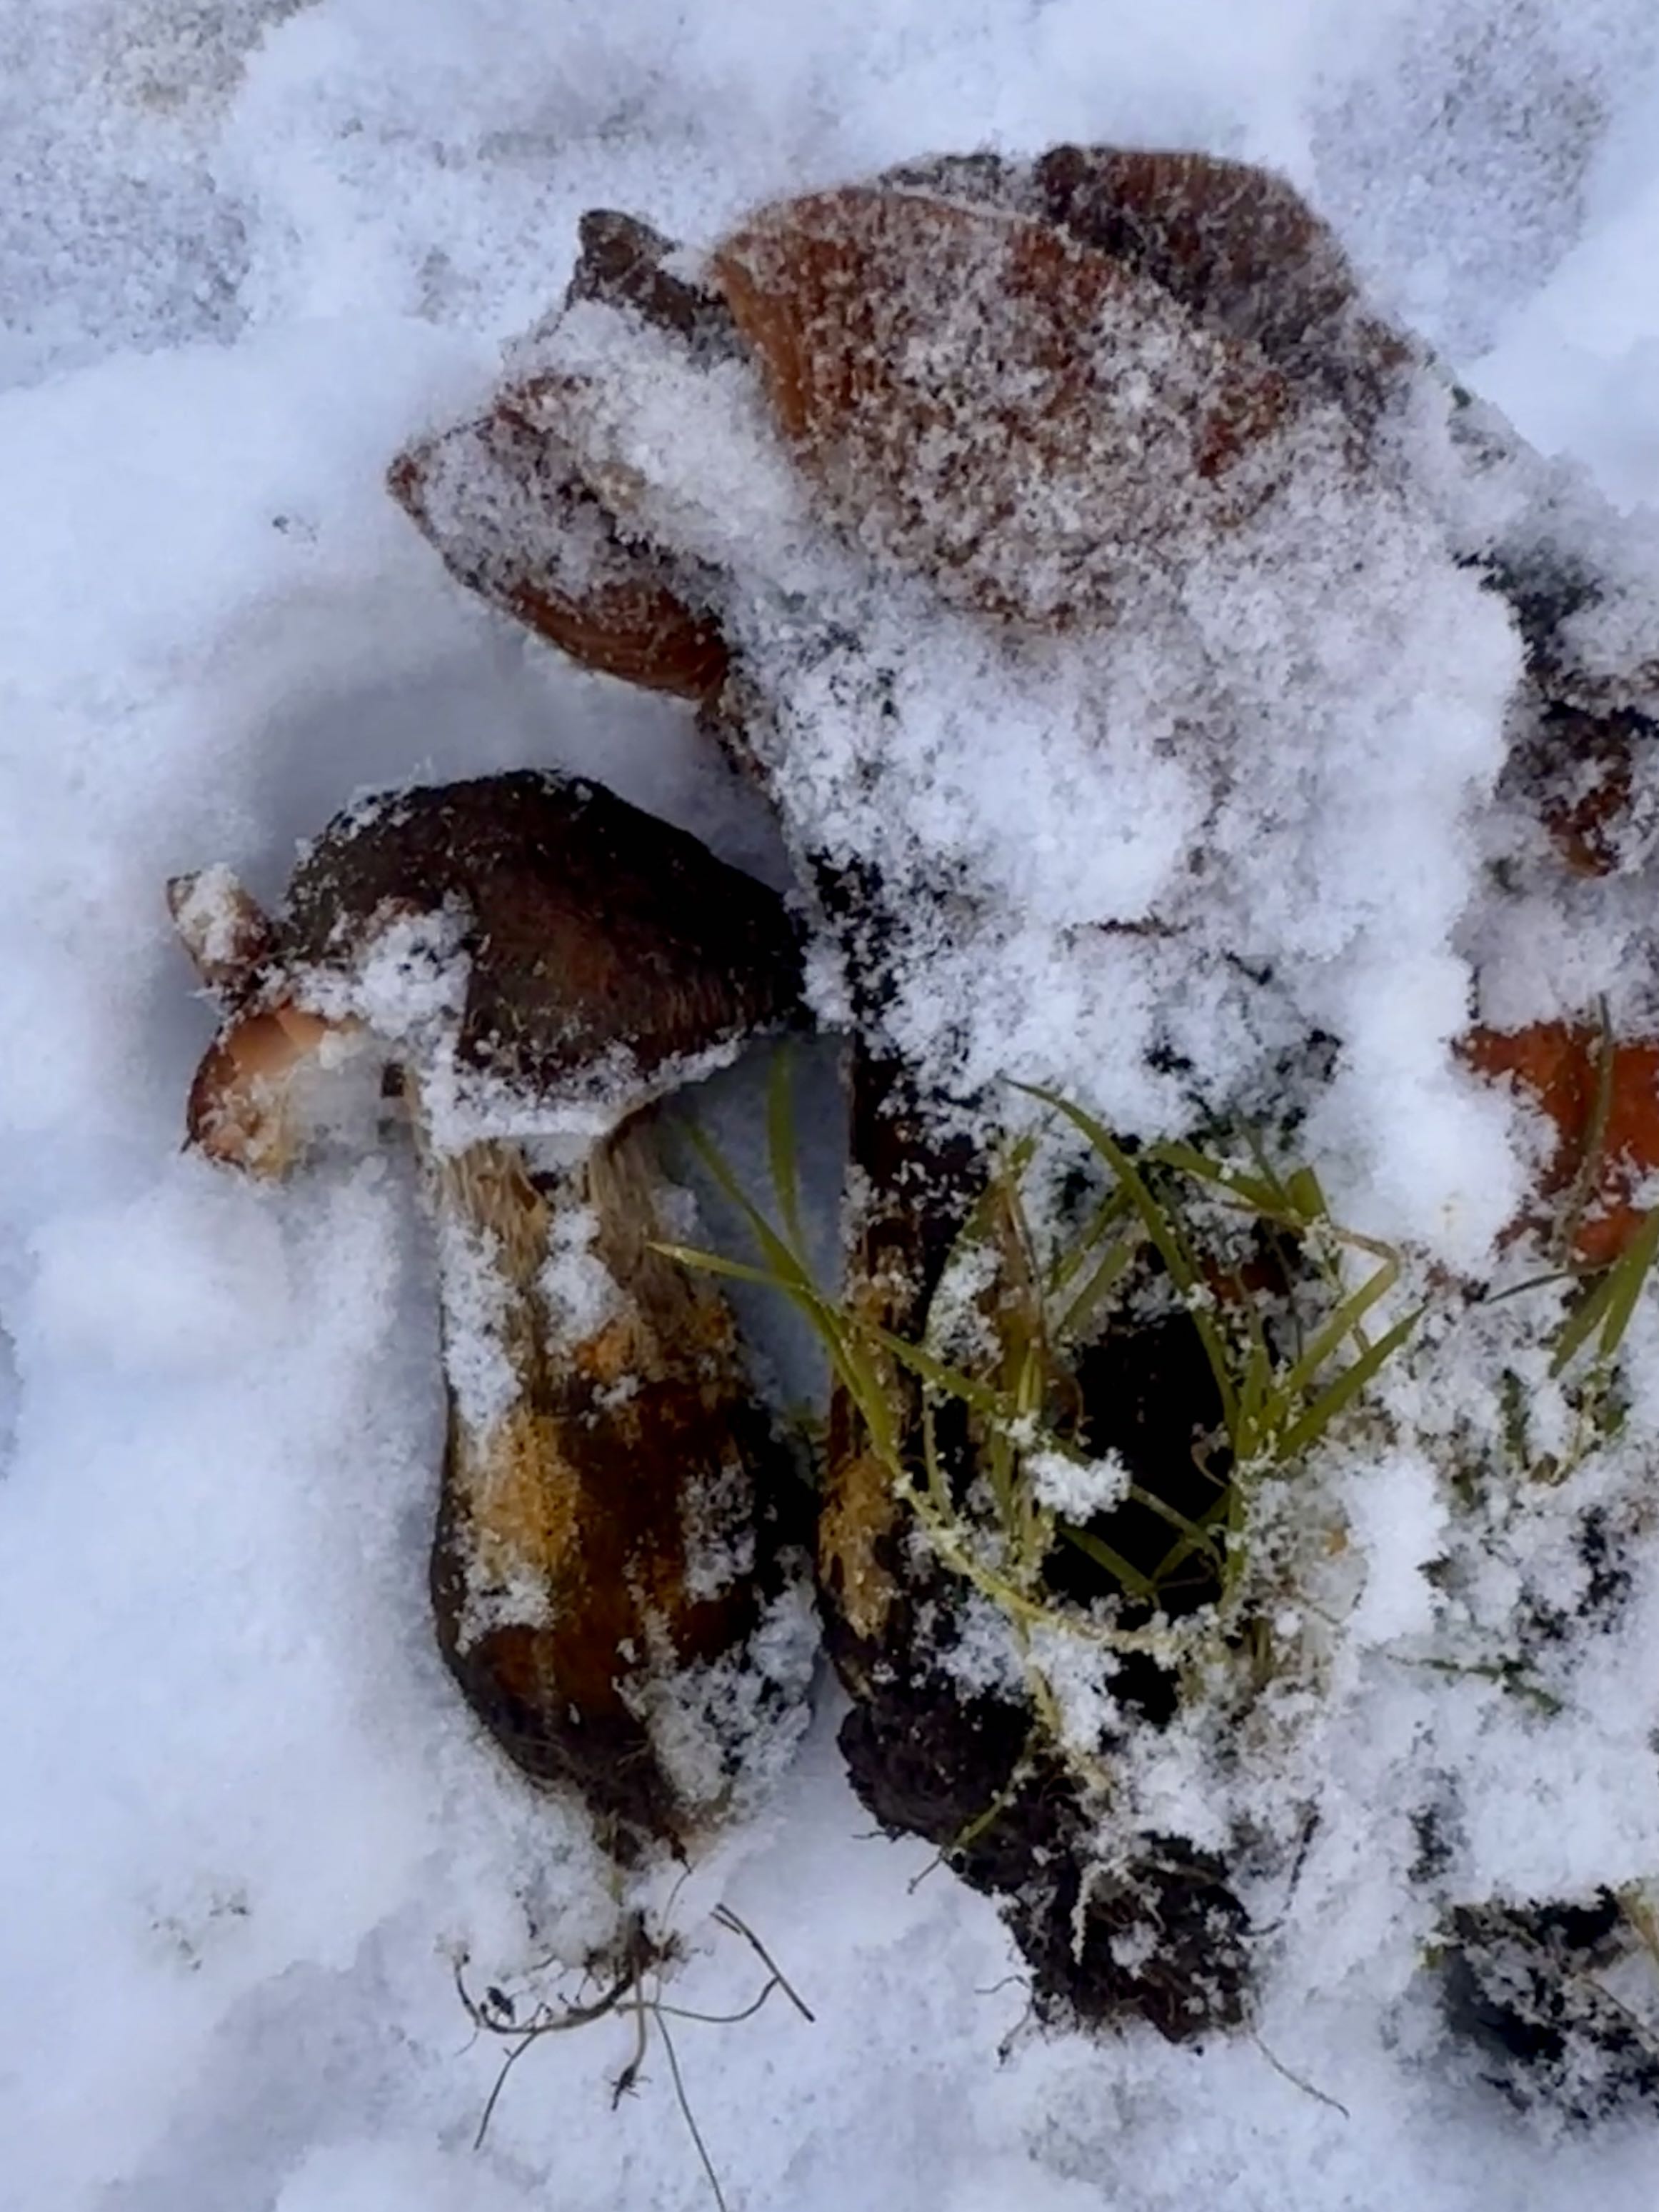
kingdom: Fungi
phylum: Basidiomycota
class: Agaricomycetes
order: Agaricales
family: Physalacriaceae
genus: Armillaria
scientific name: Armillaria lutea
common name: køllestokket honningsvamp
